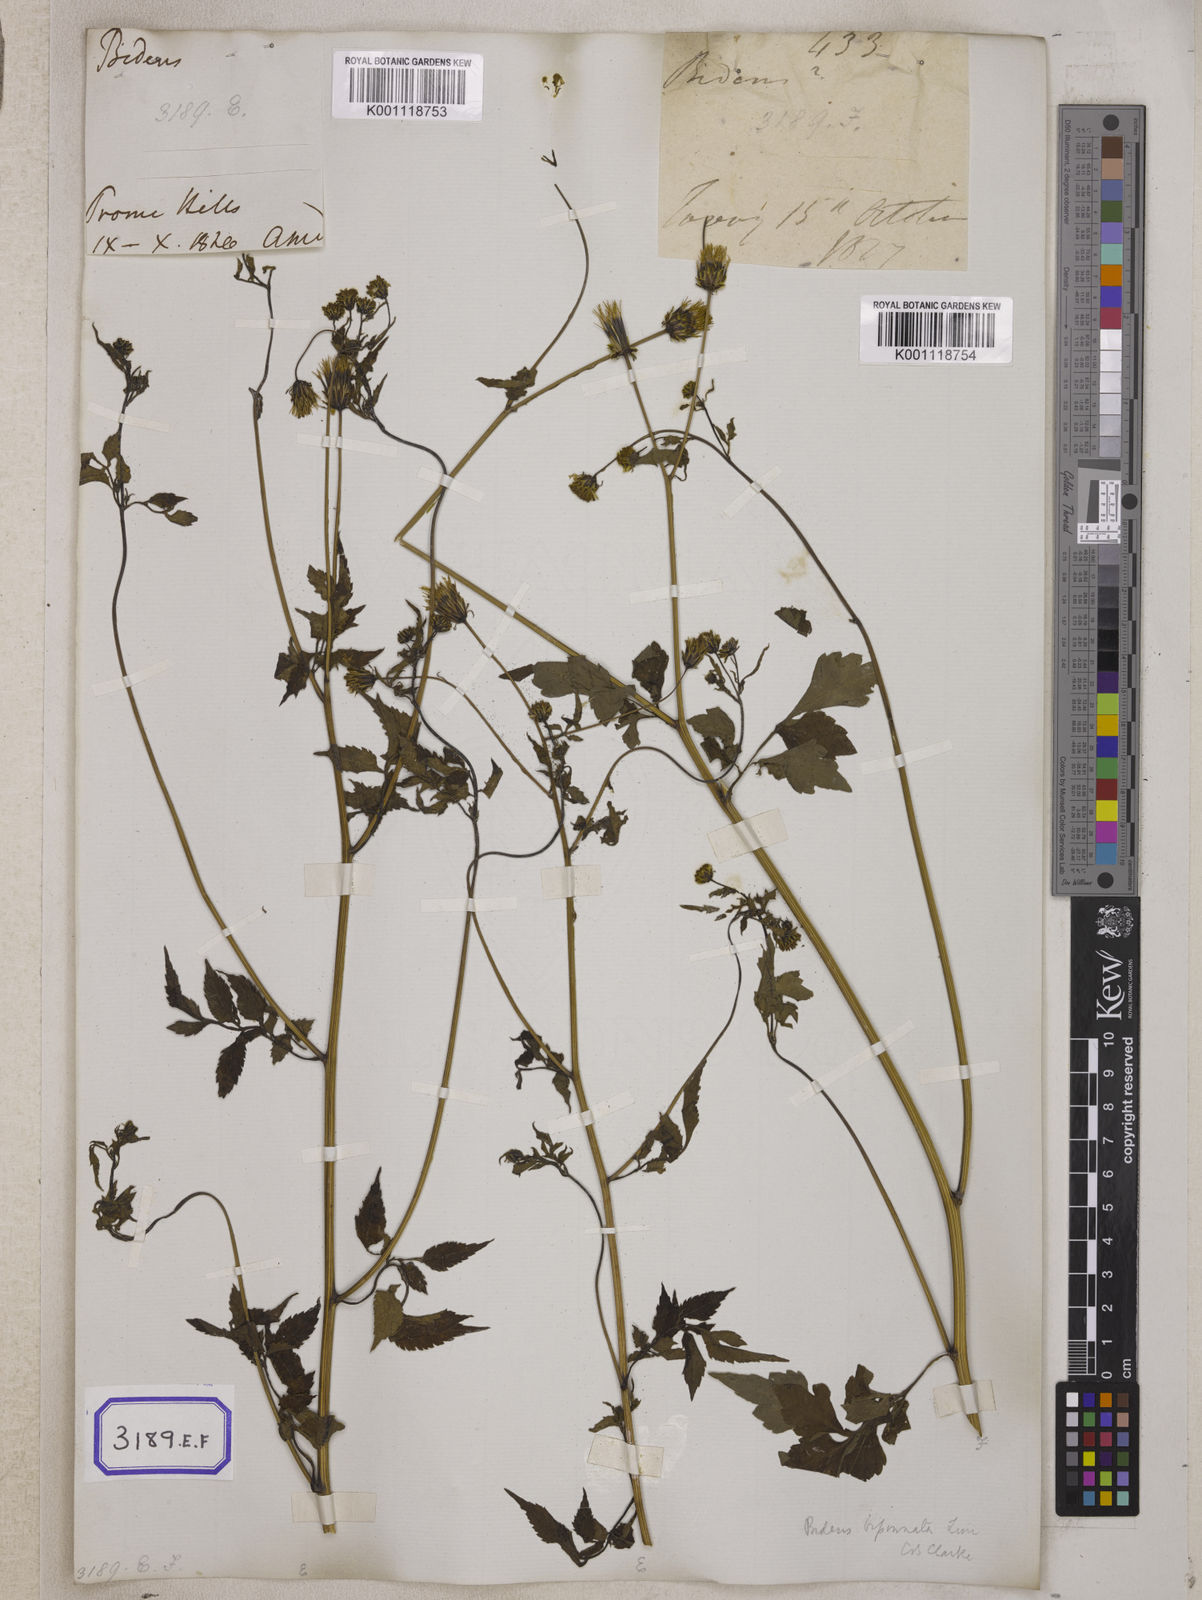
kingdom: Plantae
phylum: Tracheophyta
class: Magnoliopsida
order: Asterales
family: Asteraceae
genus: Bidens
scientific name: Bidens biternata
